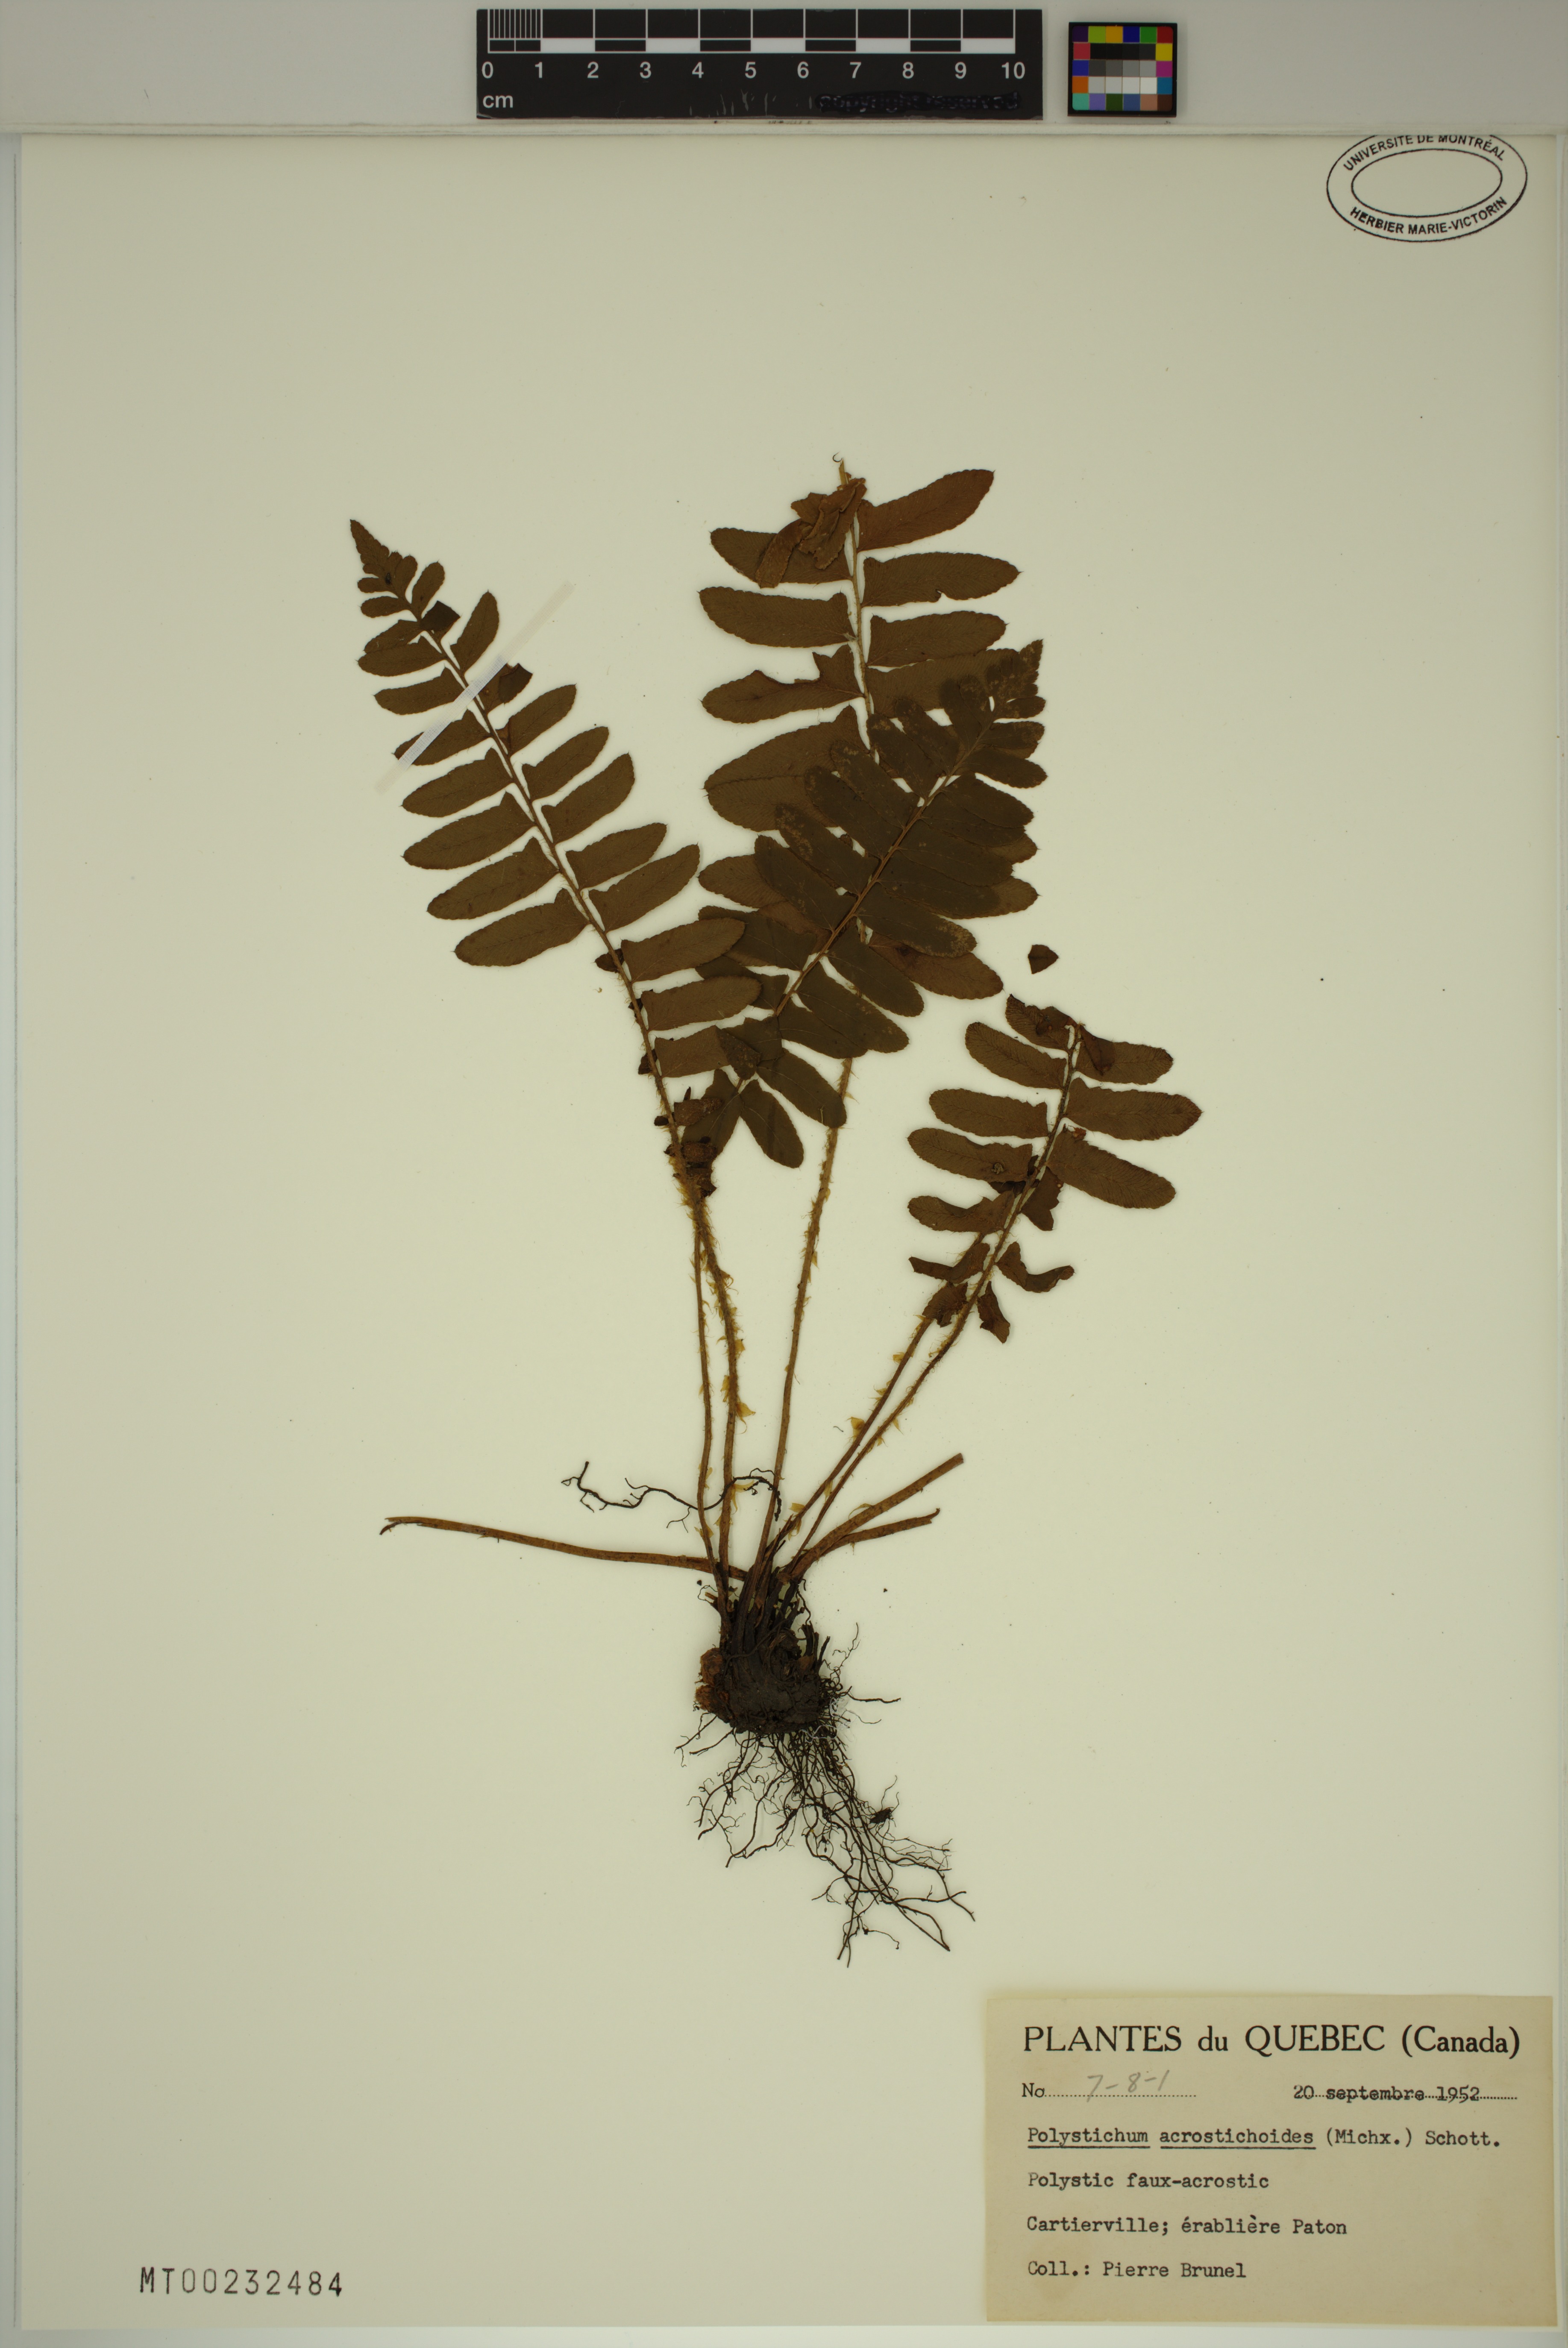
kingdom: Plantae
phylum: Tracheophyta
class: Polypodiopsida
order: Polypodiales
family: Dryopteridaceae
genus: Polystichum
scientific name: Polystichum acrostichoides
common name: Christmas fern
